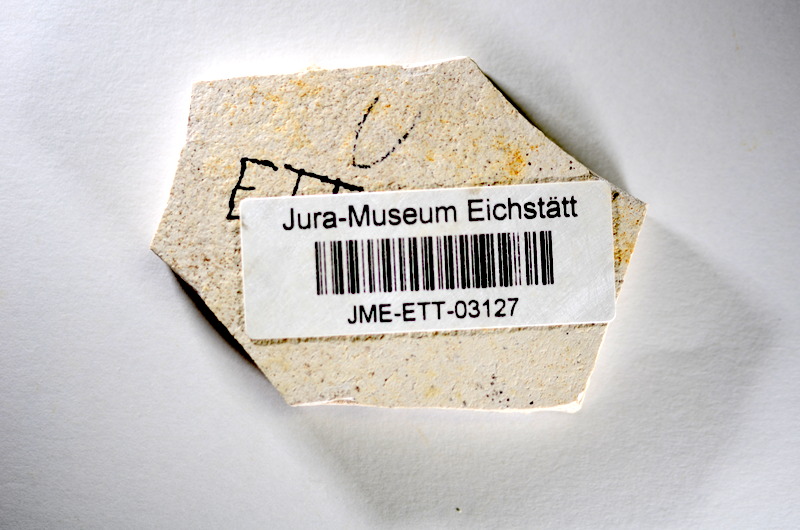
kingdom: Animalia
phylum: Chordata
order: Salmoniformes
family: Orthogonikleithridae
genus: Orthogonikleithrus
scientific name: Orthogonikleithrus hoelli
